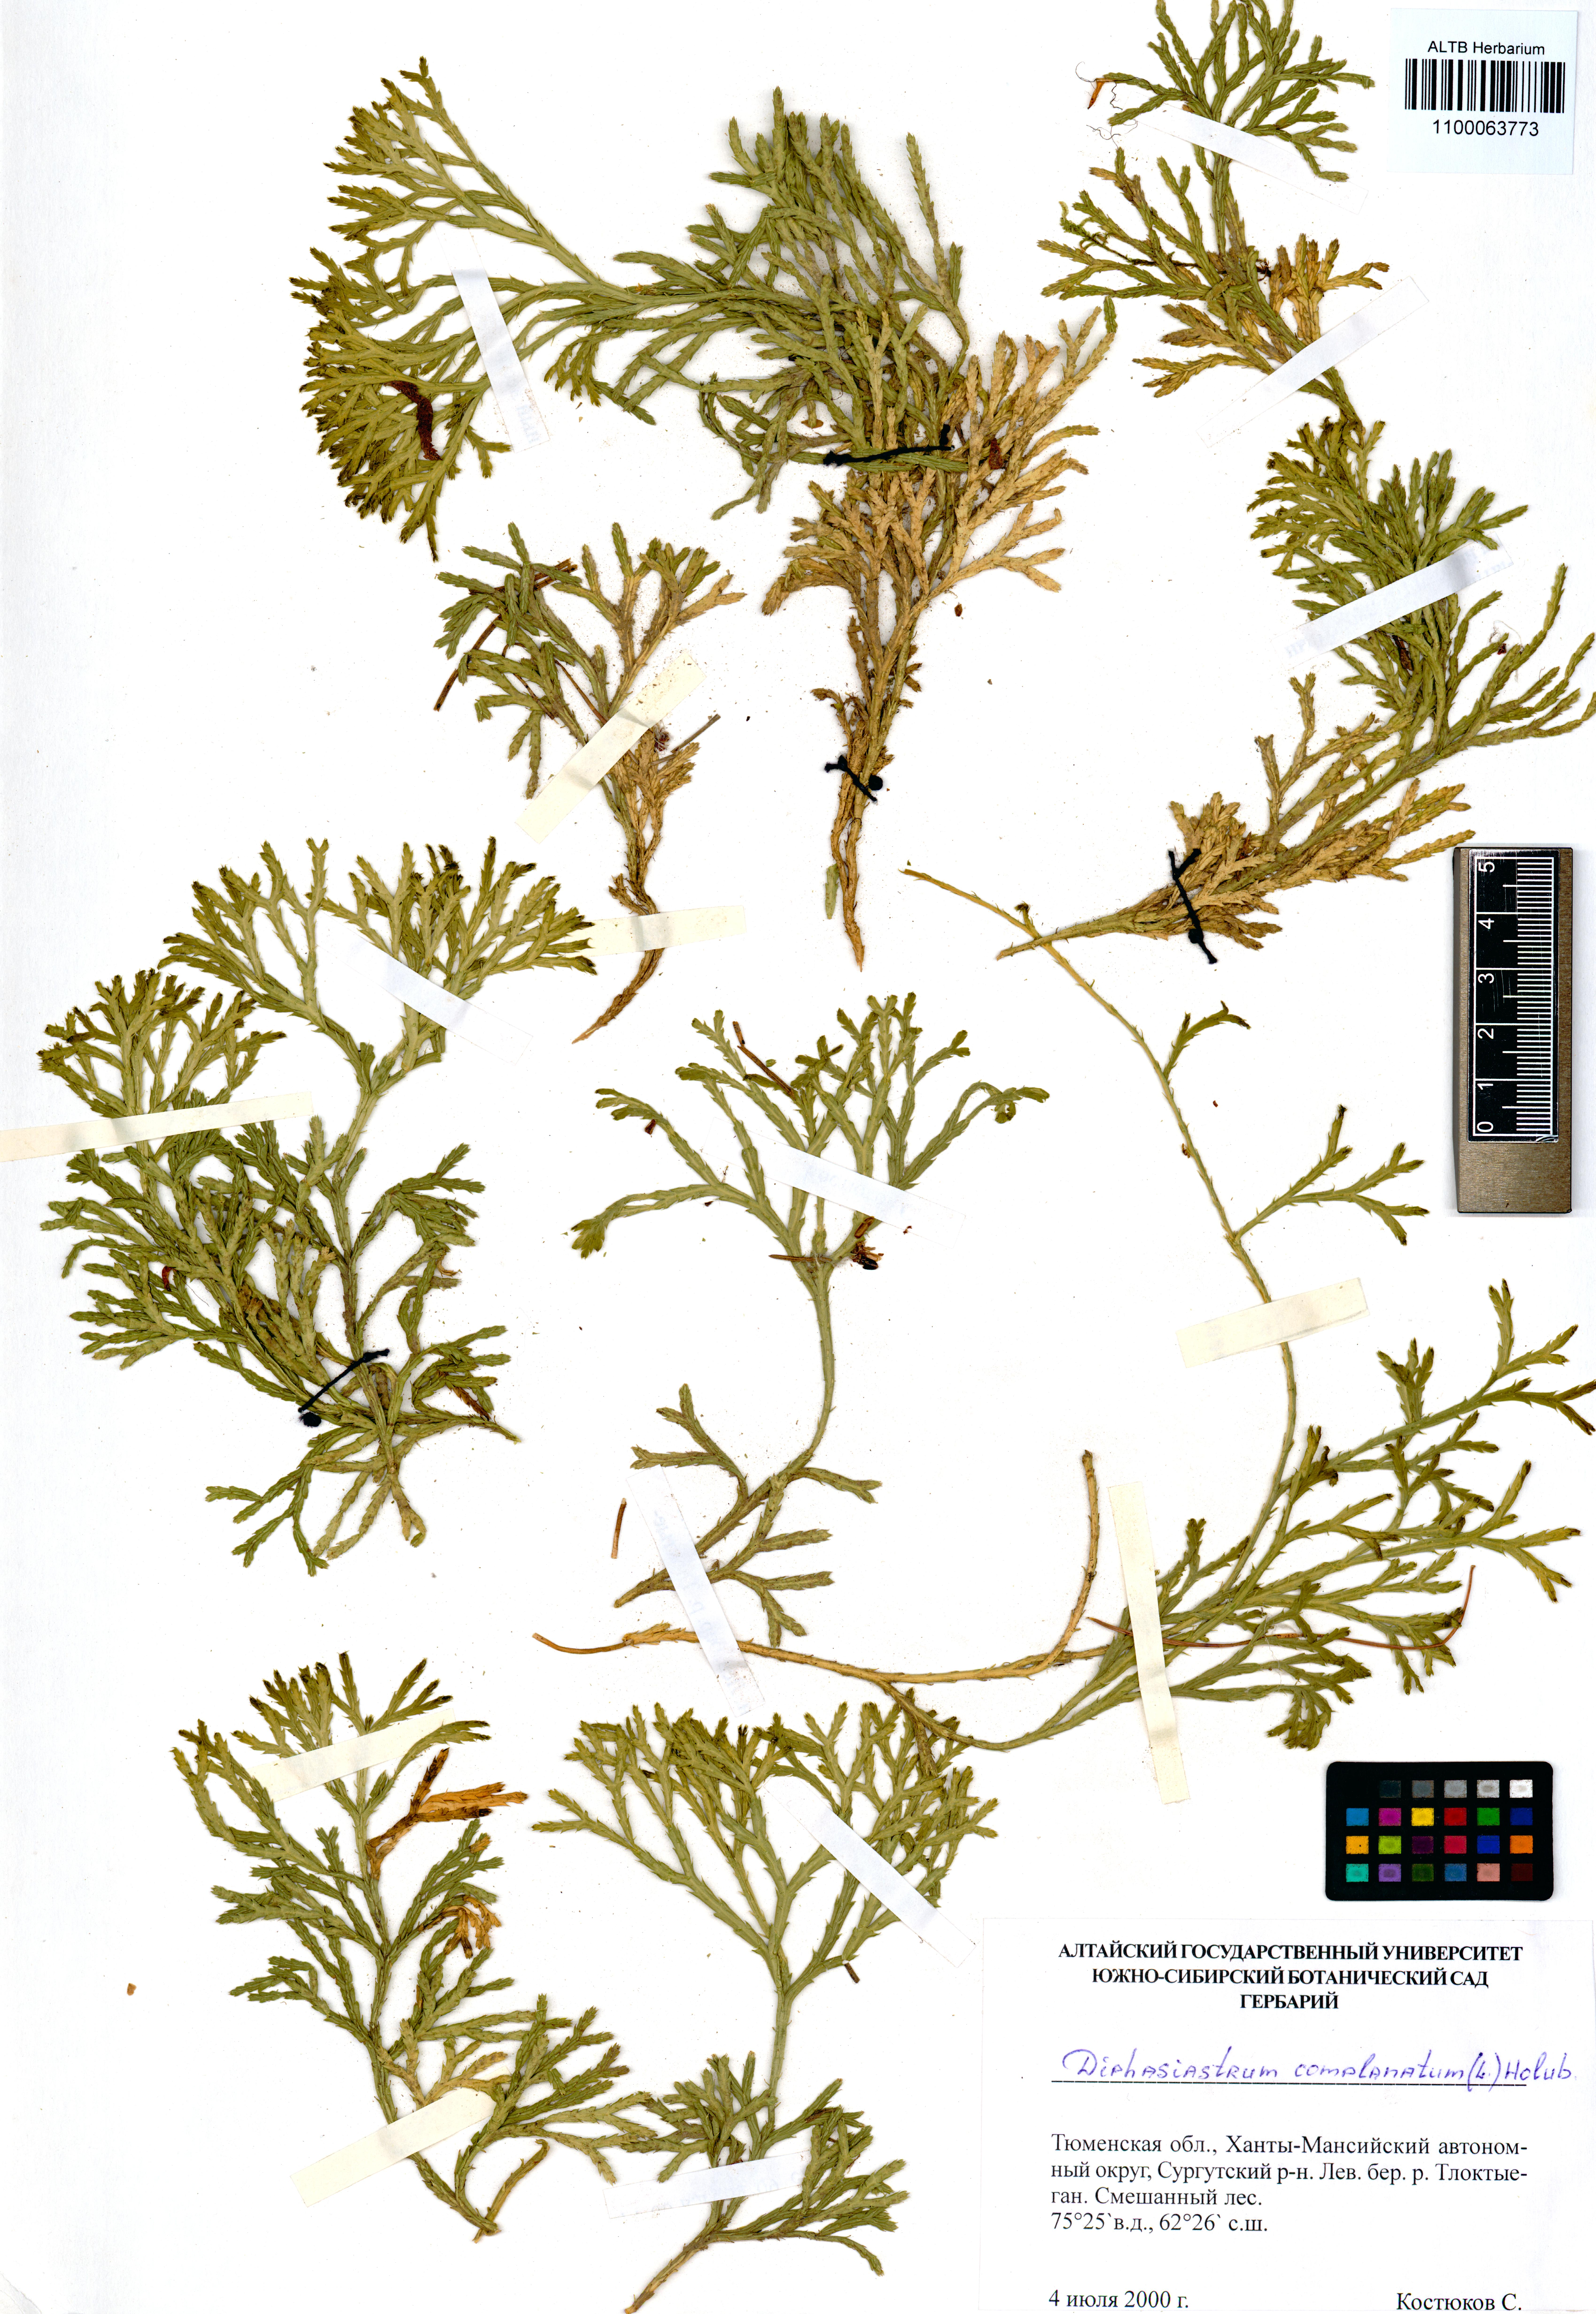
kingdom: Plantae
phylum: Tracheophyta
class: Lycopodiopsida
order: Lycopodiales
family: Lycopodiaceae
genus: Diphasiastrum
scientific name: Diphasiastrum complanatum
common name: Northern running-pine
